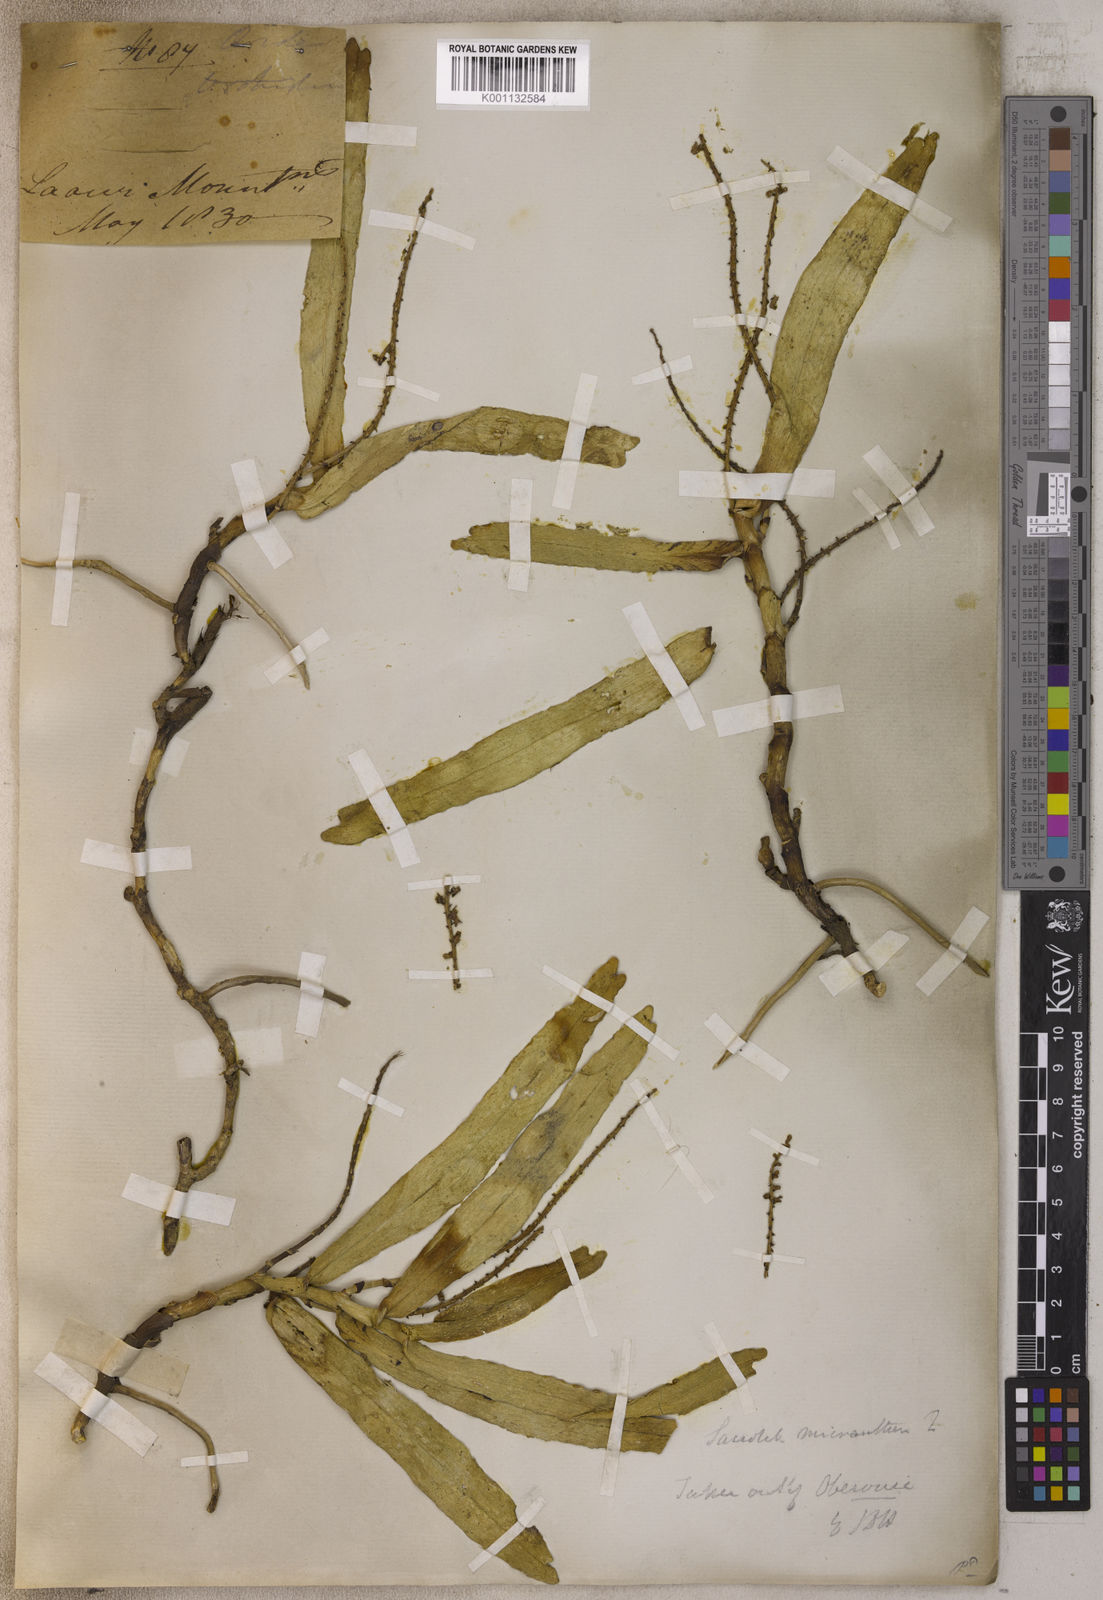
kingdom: Plantae
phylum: Tracheophyta
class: Liliopsida
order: Asparagales
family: Orchidaceae
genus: Smitinandia
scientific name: Smitinandia micrantha
